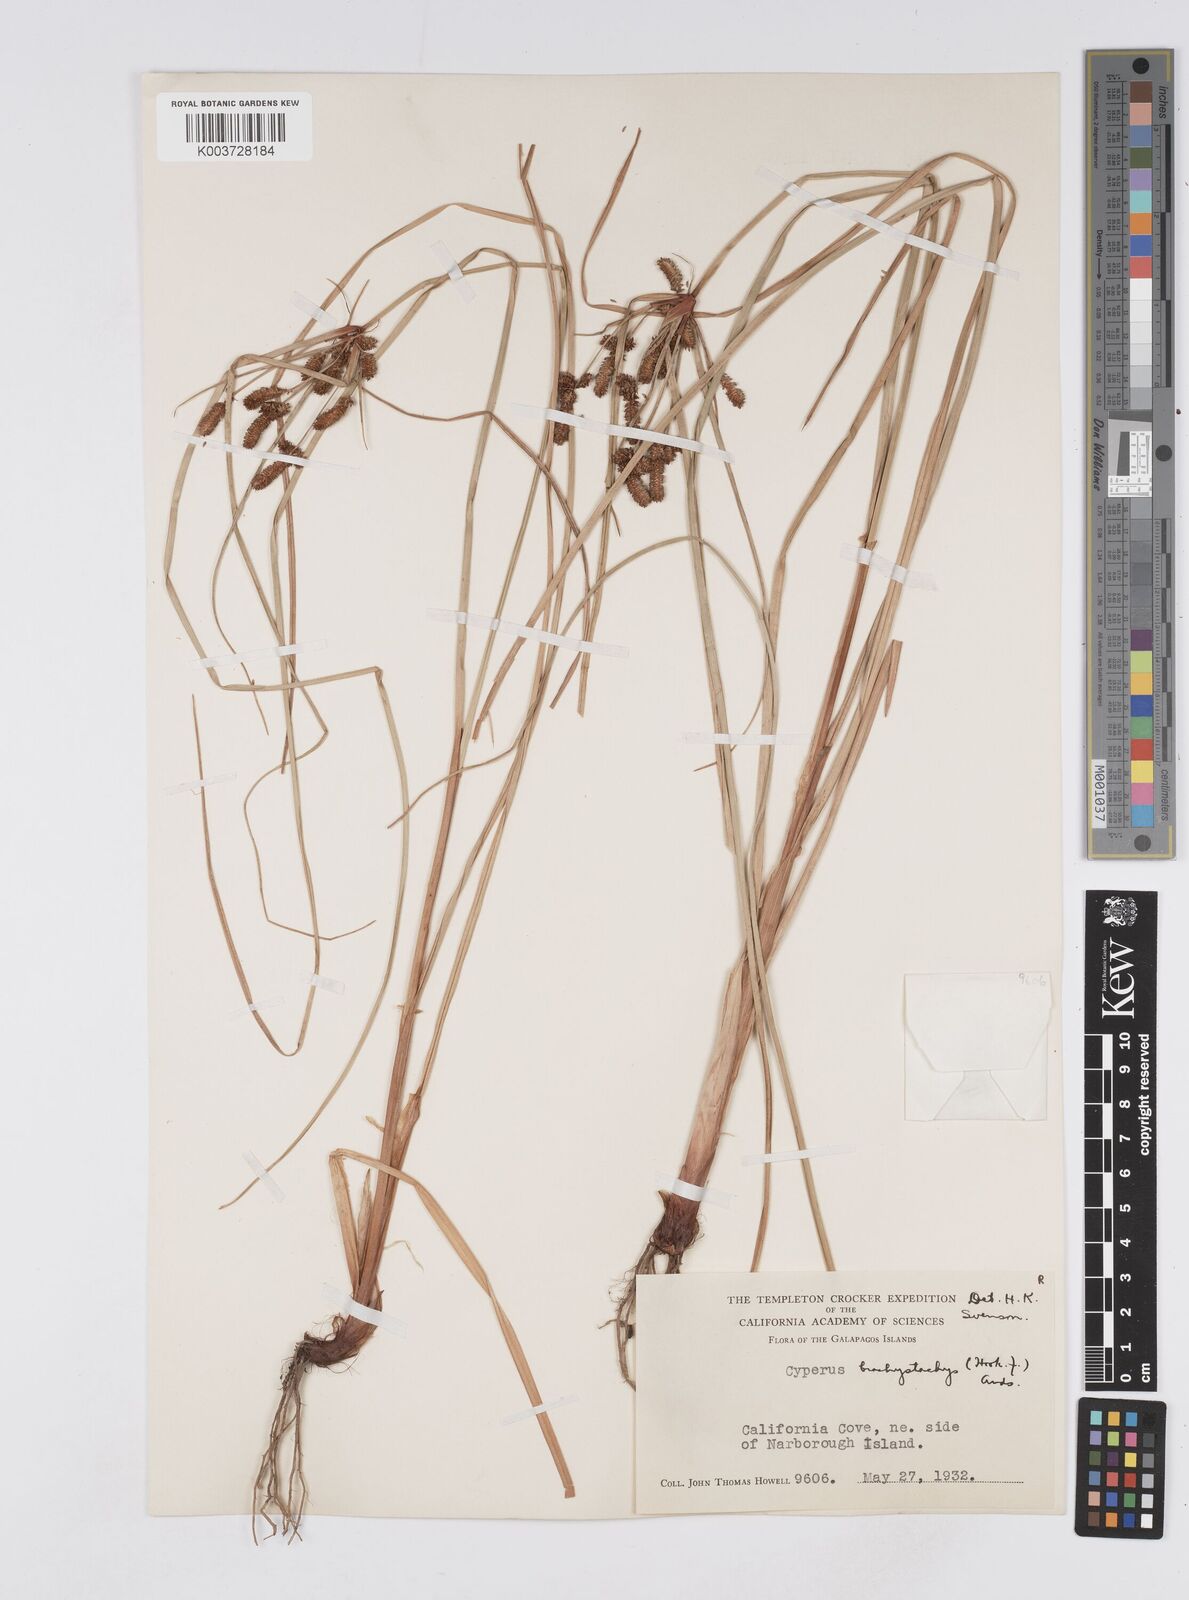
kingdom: Plantae
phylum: Tracheophyta
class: Liliopsida
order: Poales
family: Cyperaceae
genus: Cyperus
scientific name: Cyperus anderssonii
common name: Andersson's sedge
